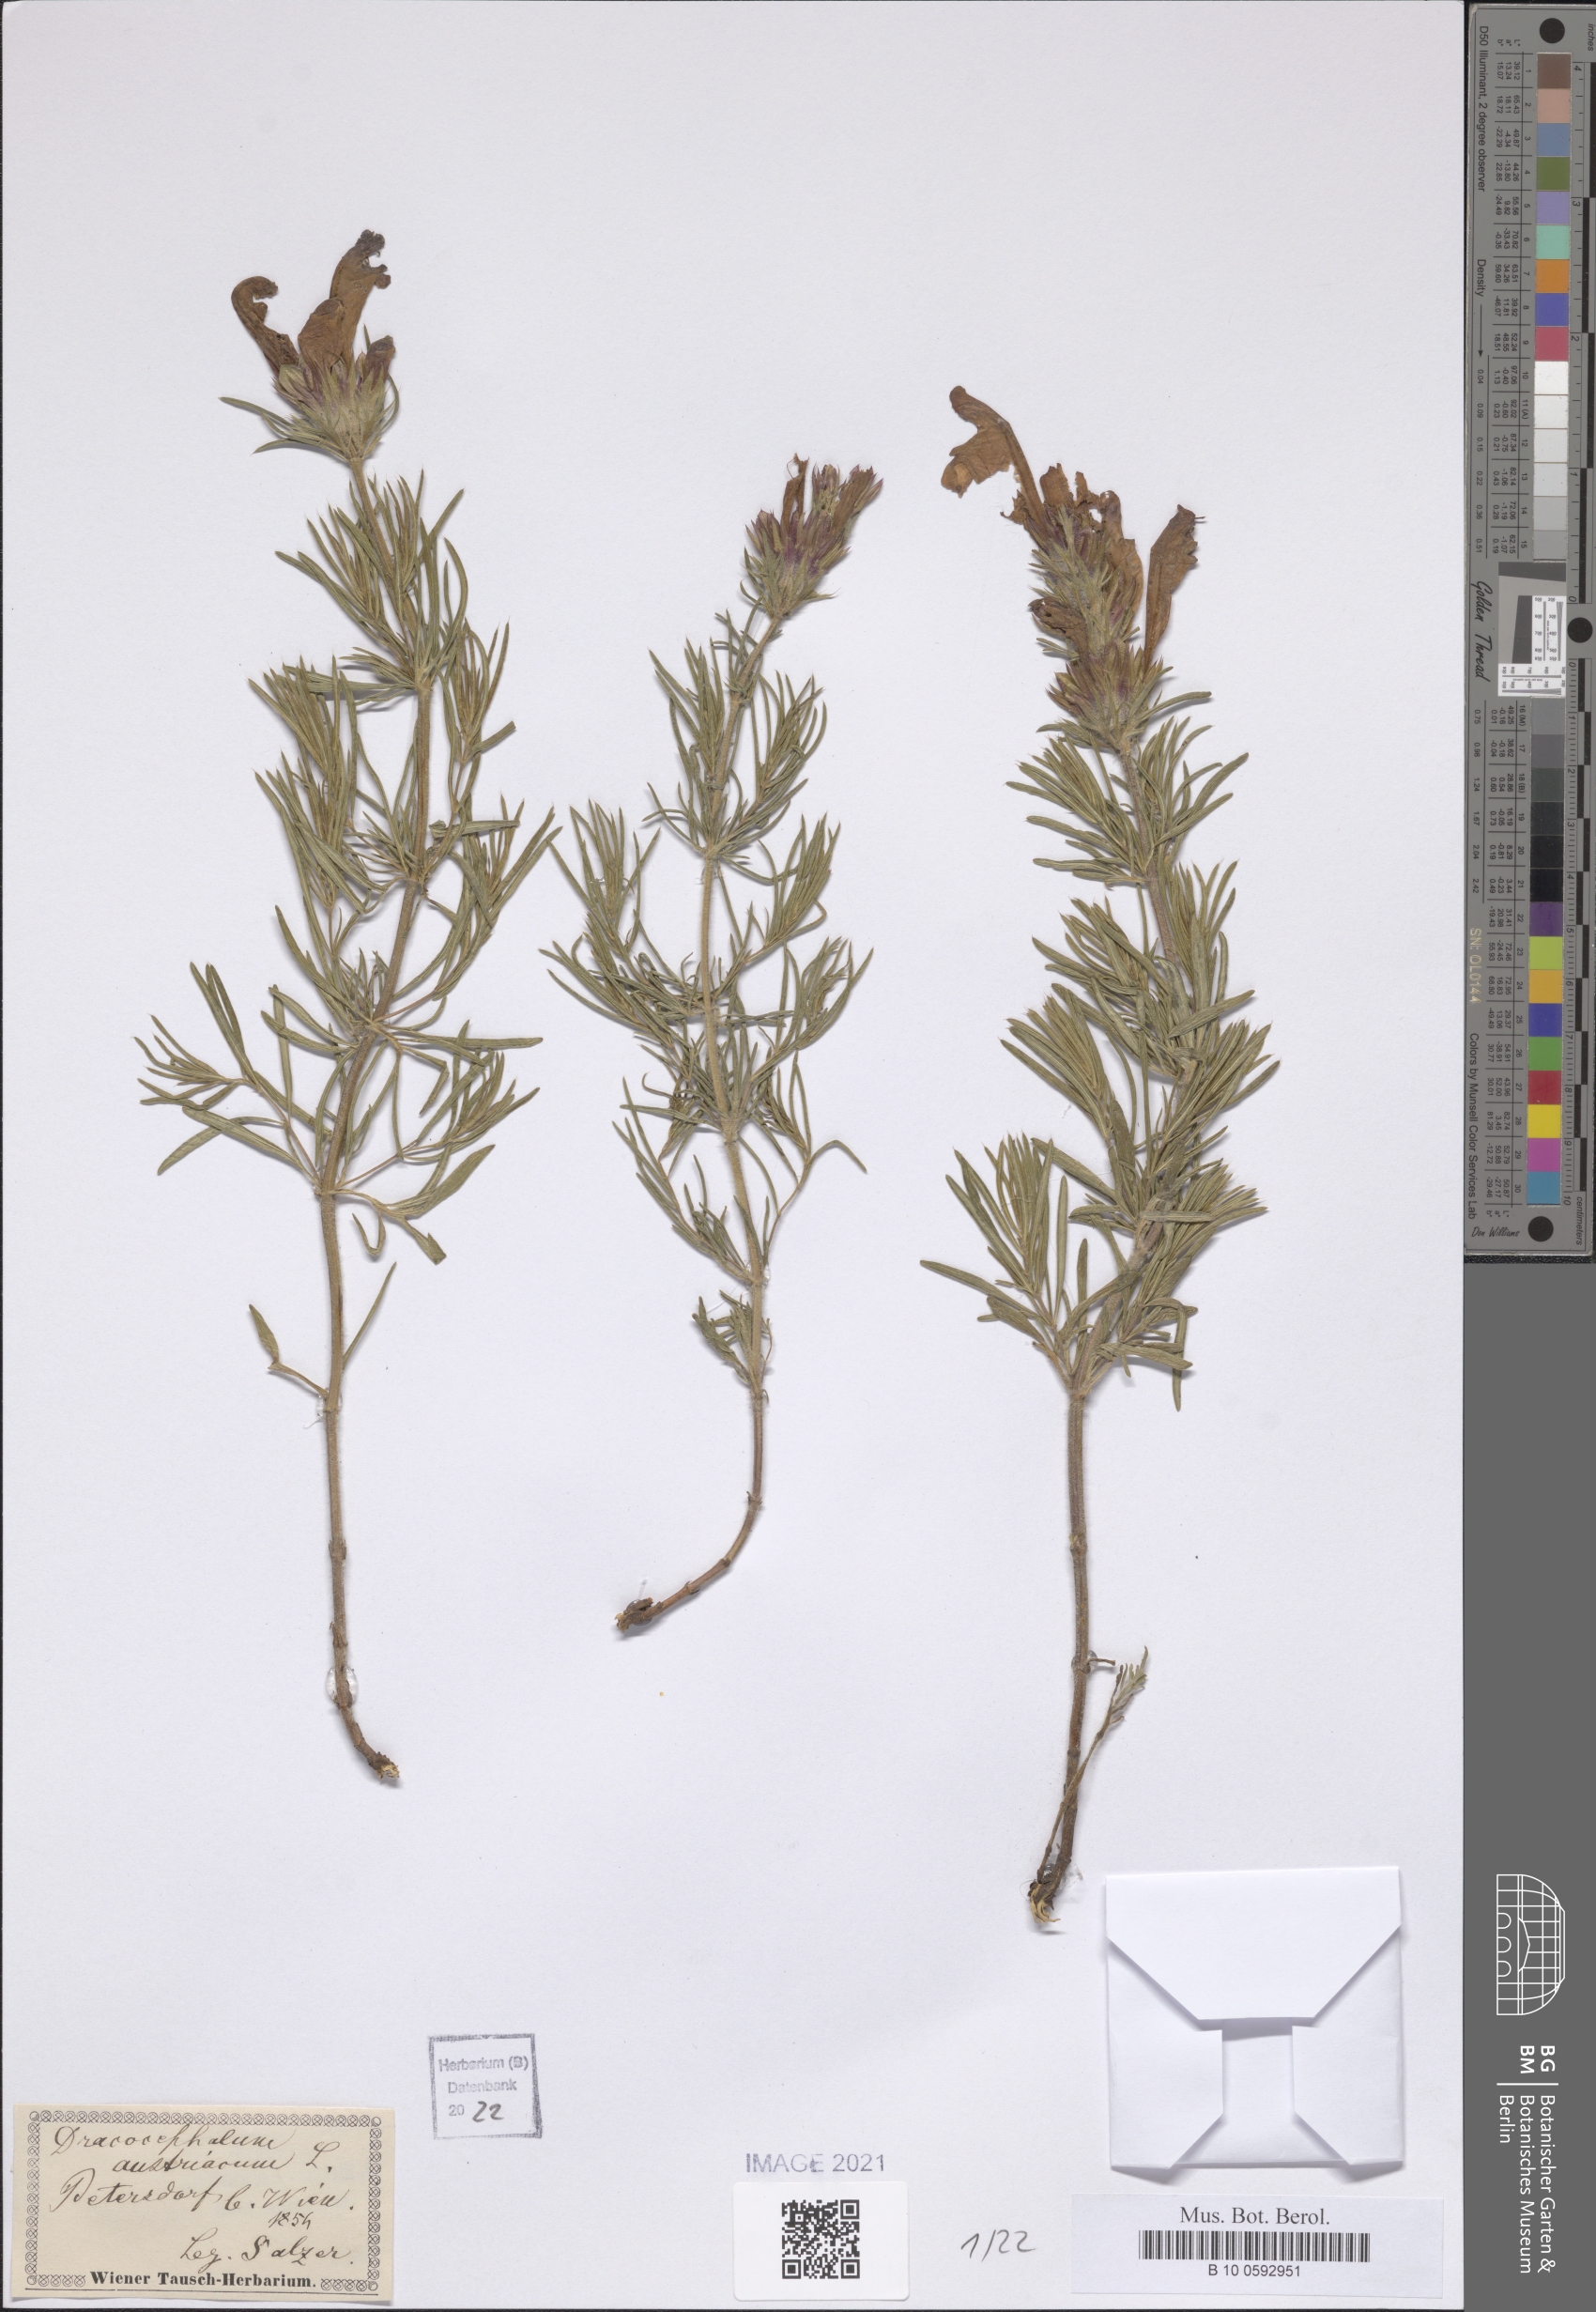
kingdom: Plantae
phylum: Tracheophyta
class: Magnoliopsida
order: Lamiales
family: Lamiaceae
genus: Dracocephalum
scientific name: Dracocephalum austriacum
